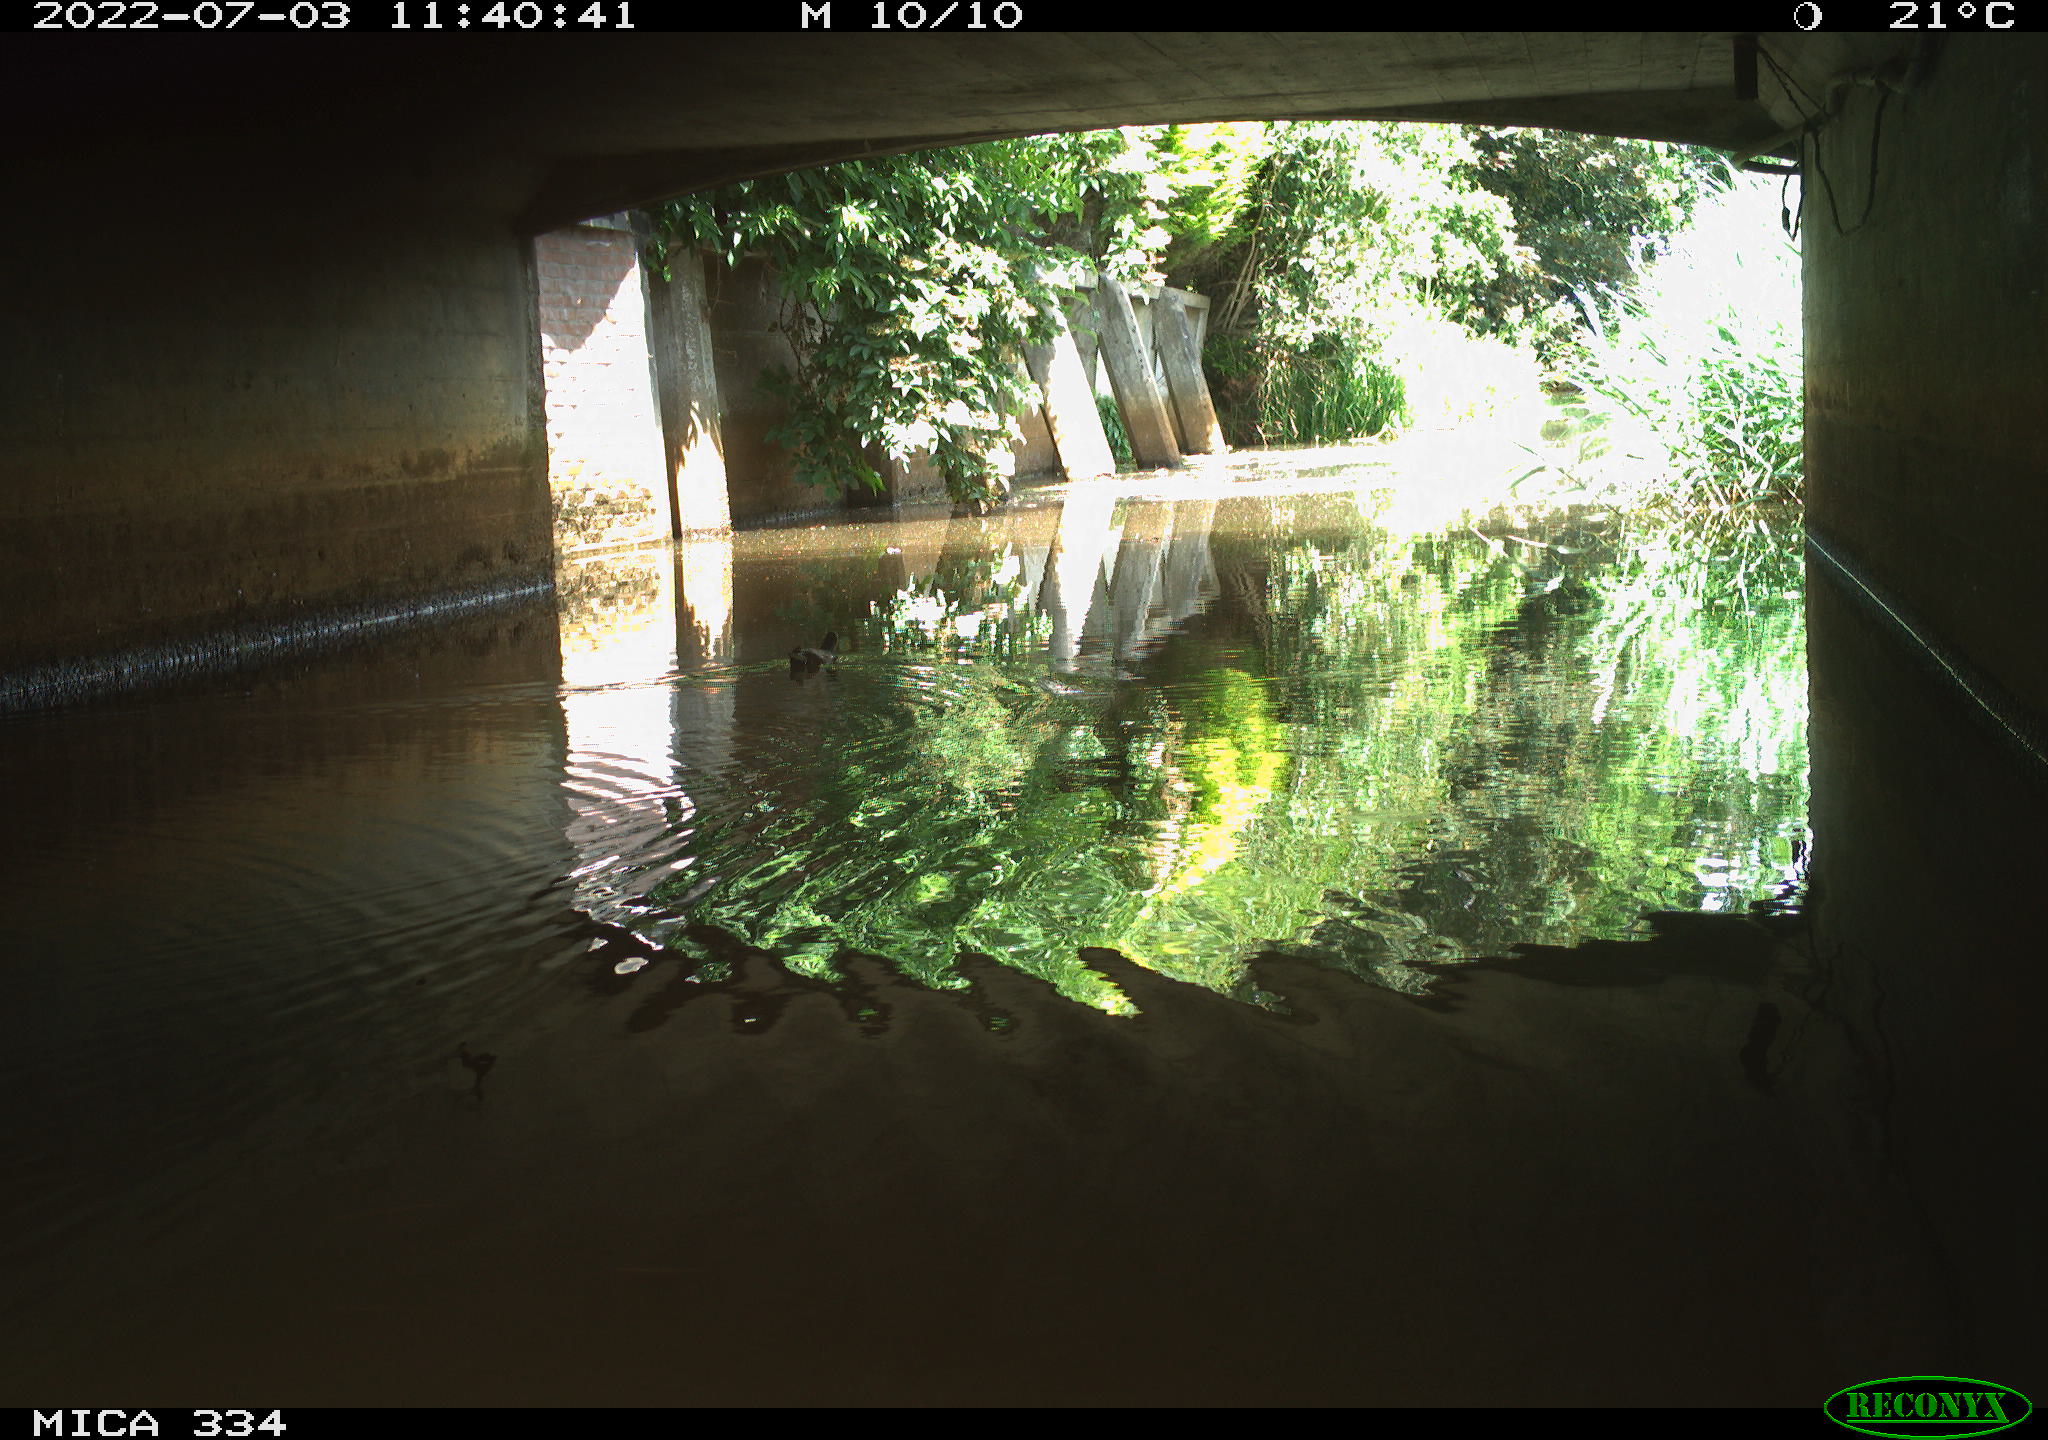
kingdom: Animalia
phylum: Chordata
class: Aves
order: Gruiformes
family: Rallidae
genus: Gallinula
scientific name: Gallinula chloropus
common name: Common moorhen
